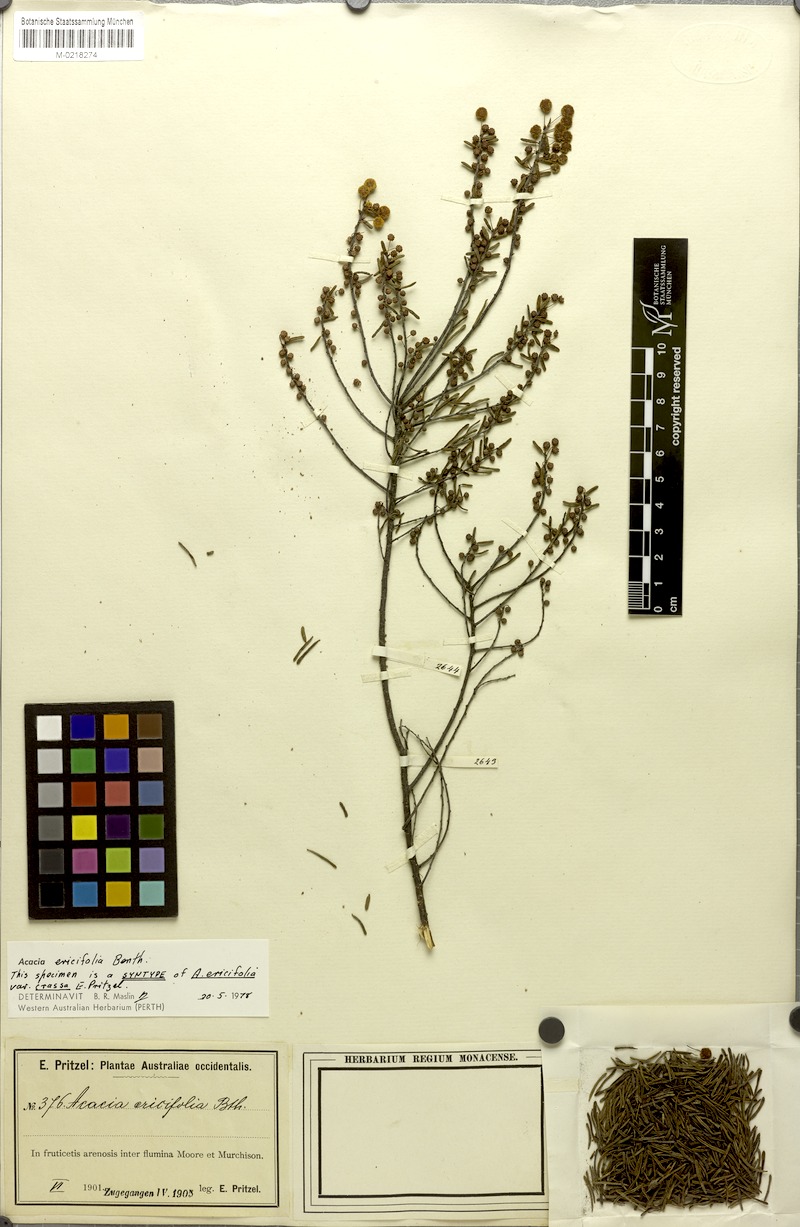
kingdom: Plantae
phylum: Tracheophyta
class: Magnoliopsida
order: Fabales
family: Fabaceae
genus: Acacia
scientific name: Acacia
